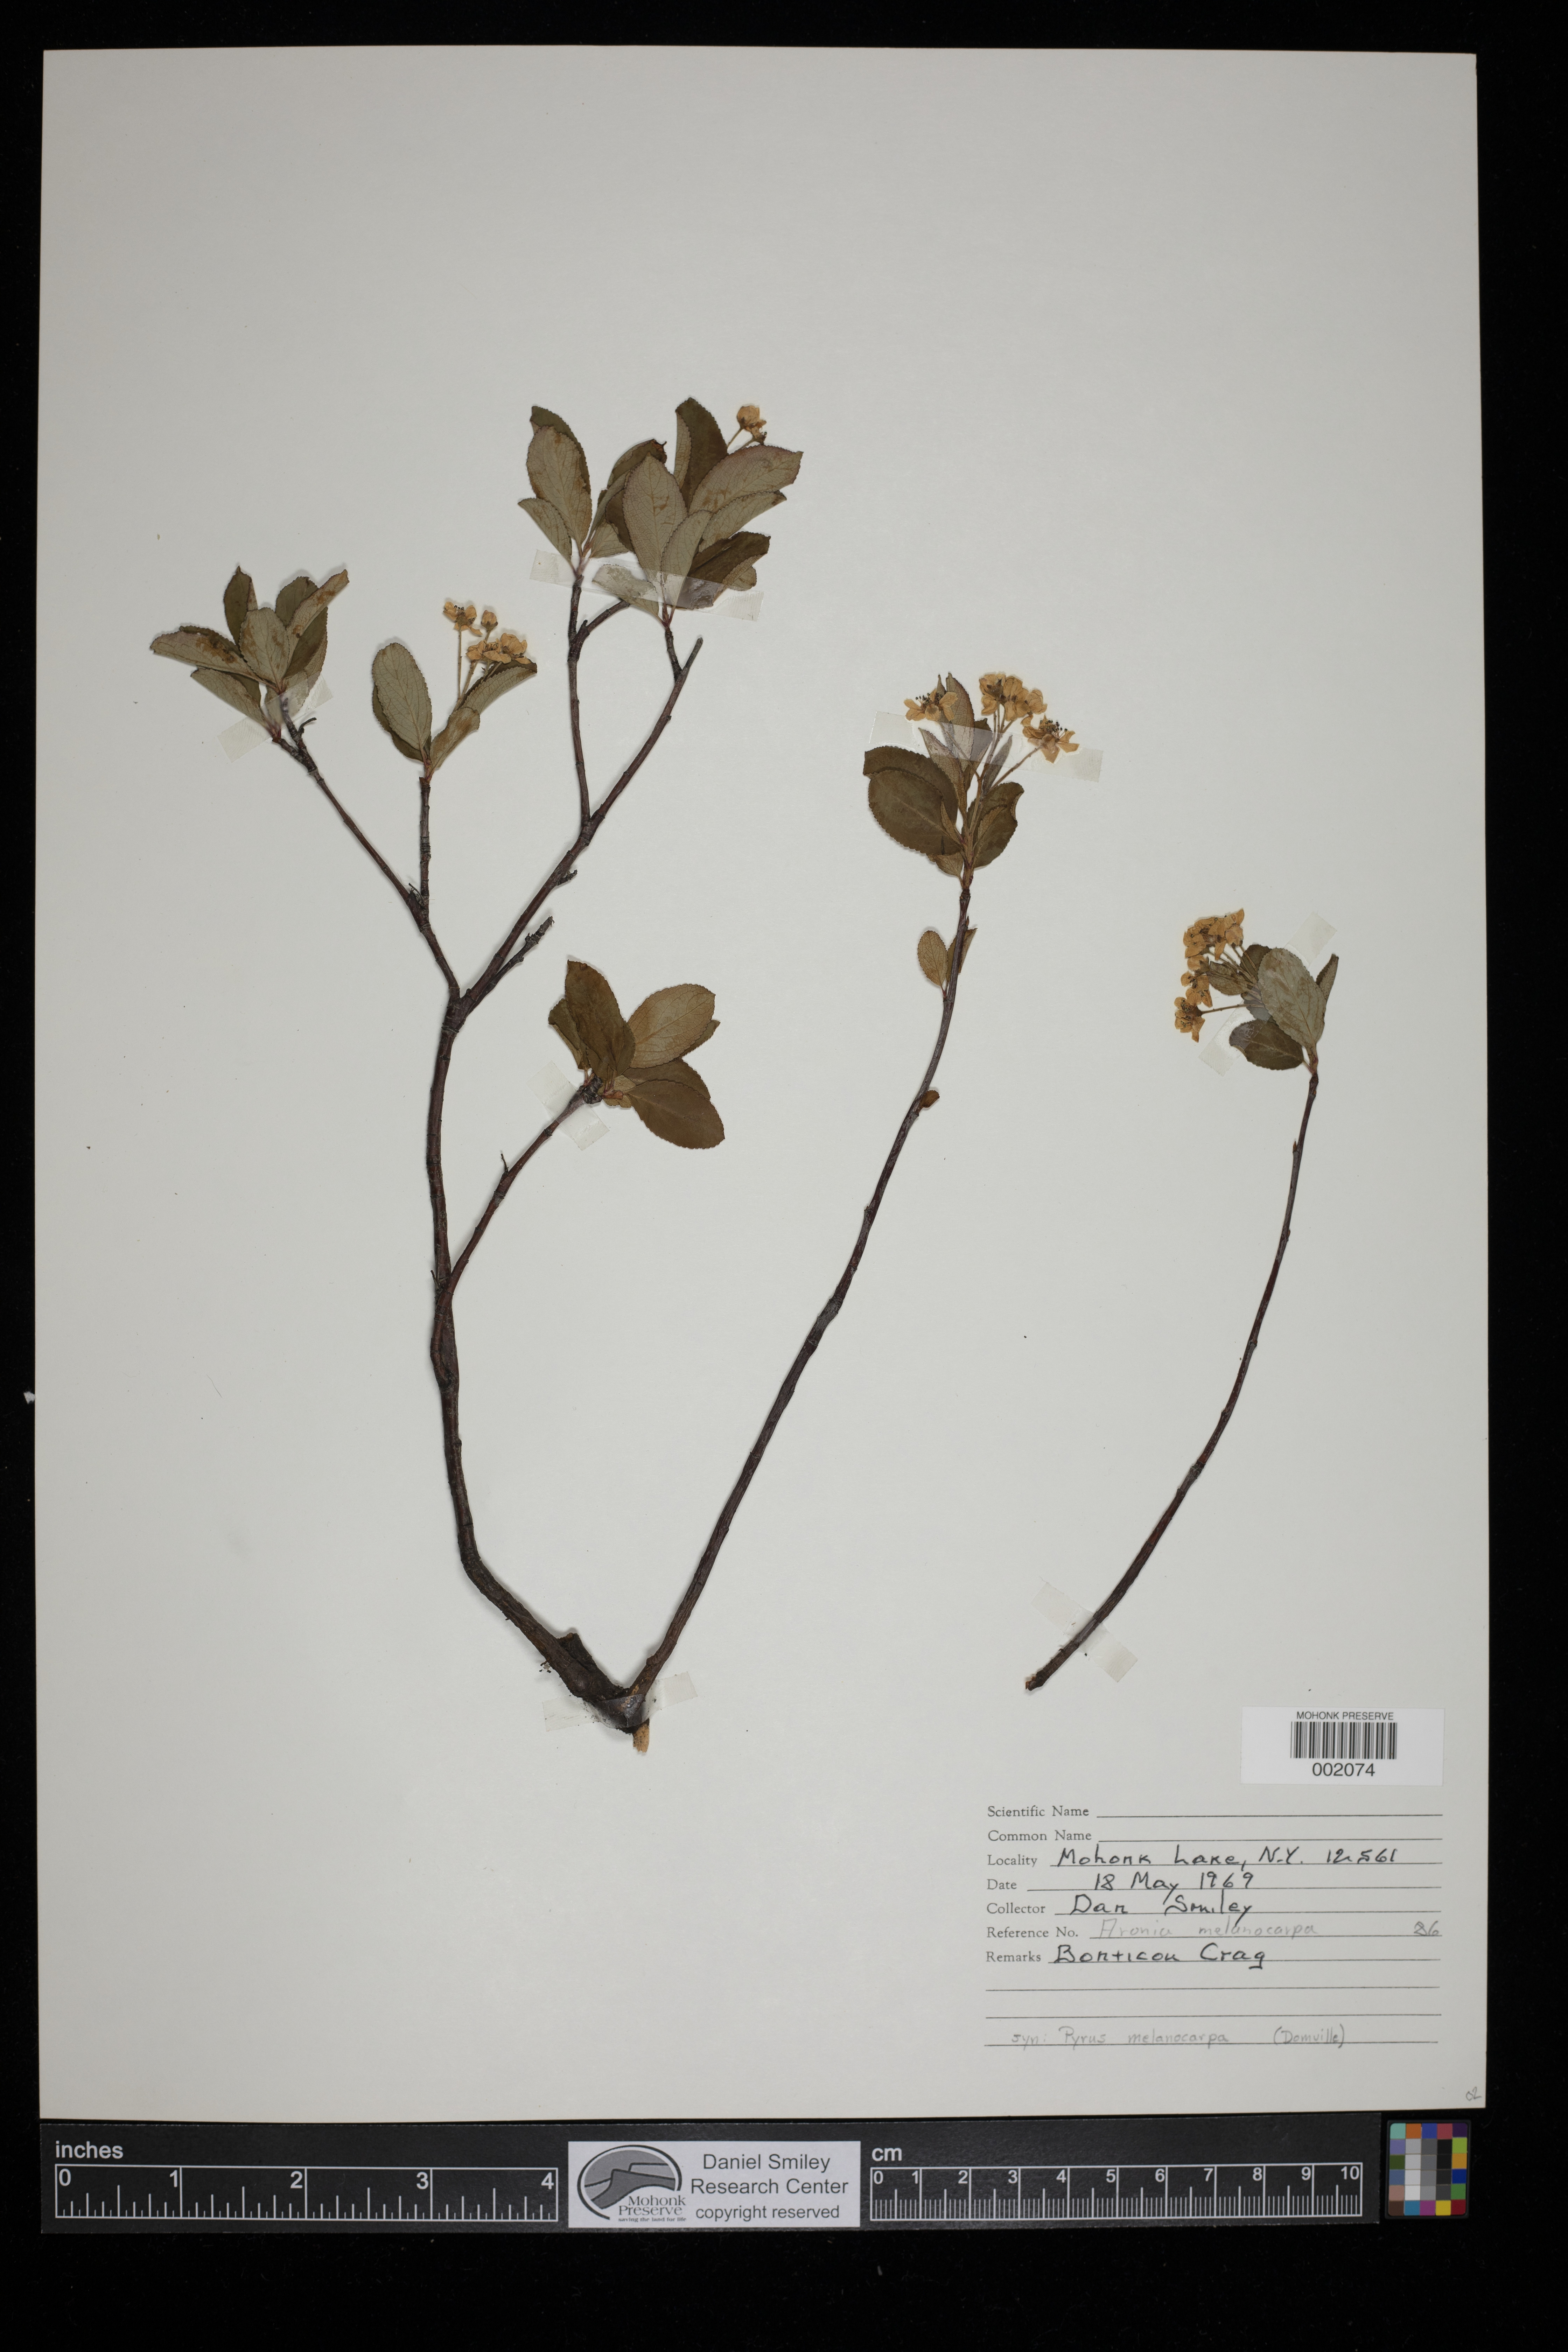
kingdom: Plantae
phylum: Tracheophyta
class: Magnoliopsida
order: Rosales
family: Rosaceae
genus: Aronia
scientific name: Aronia melanocarpa
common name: Black chokeberry
